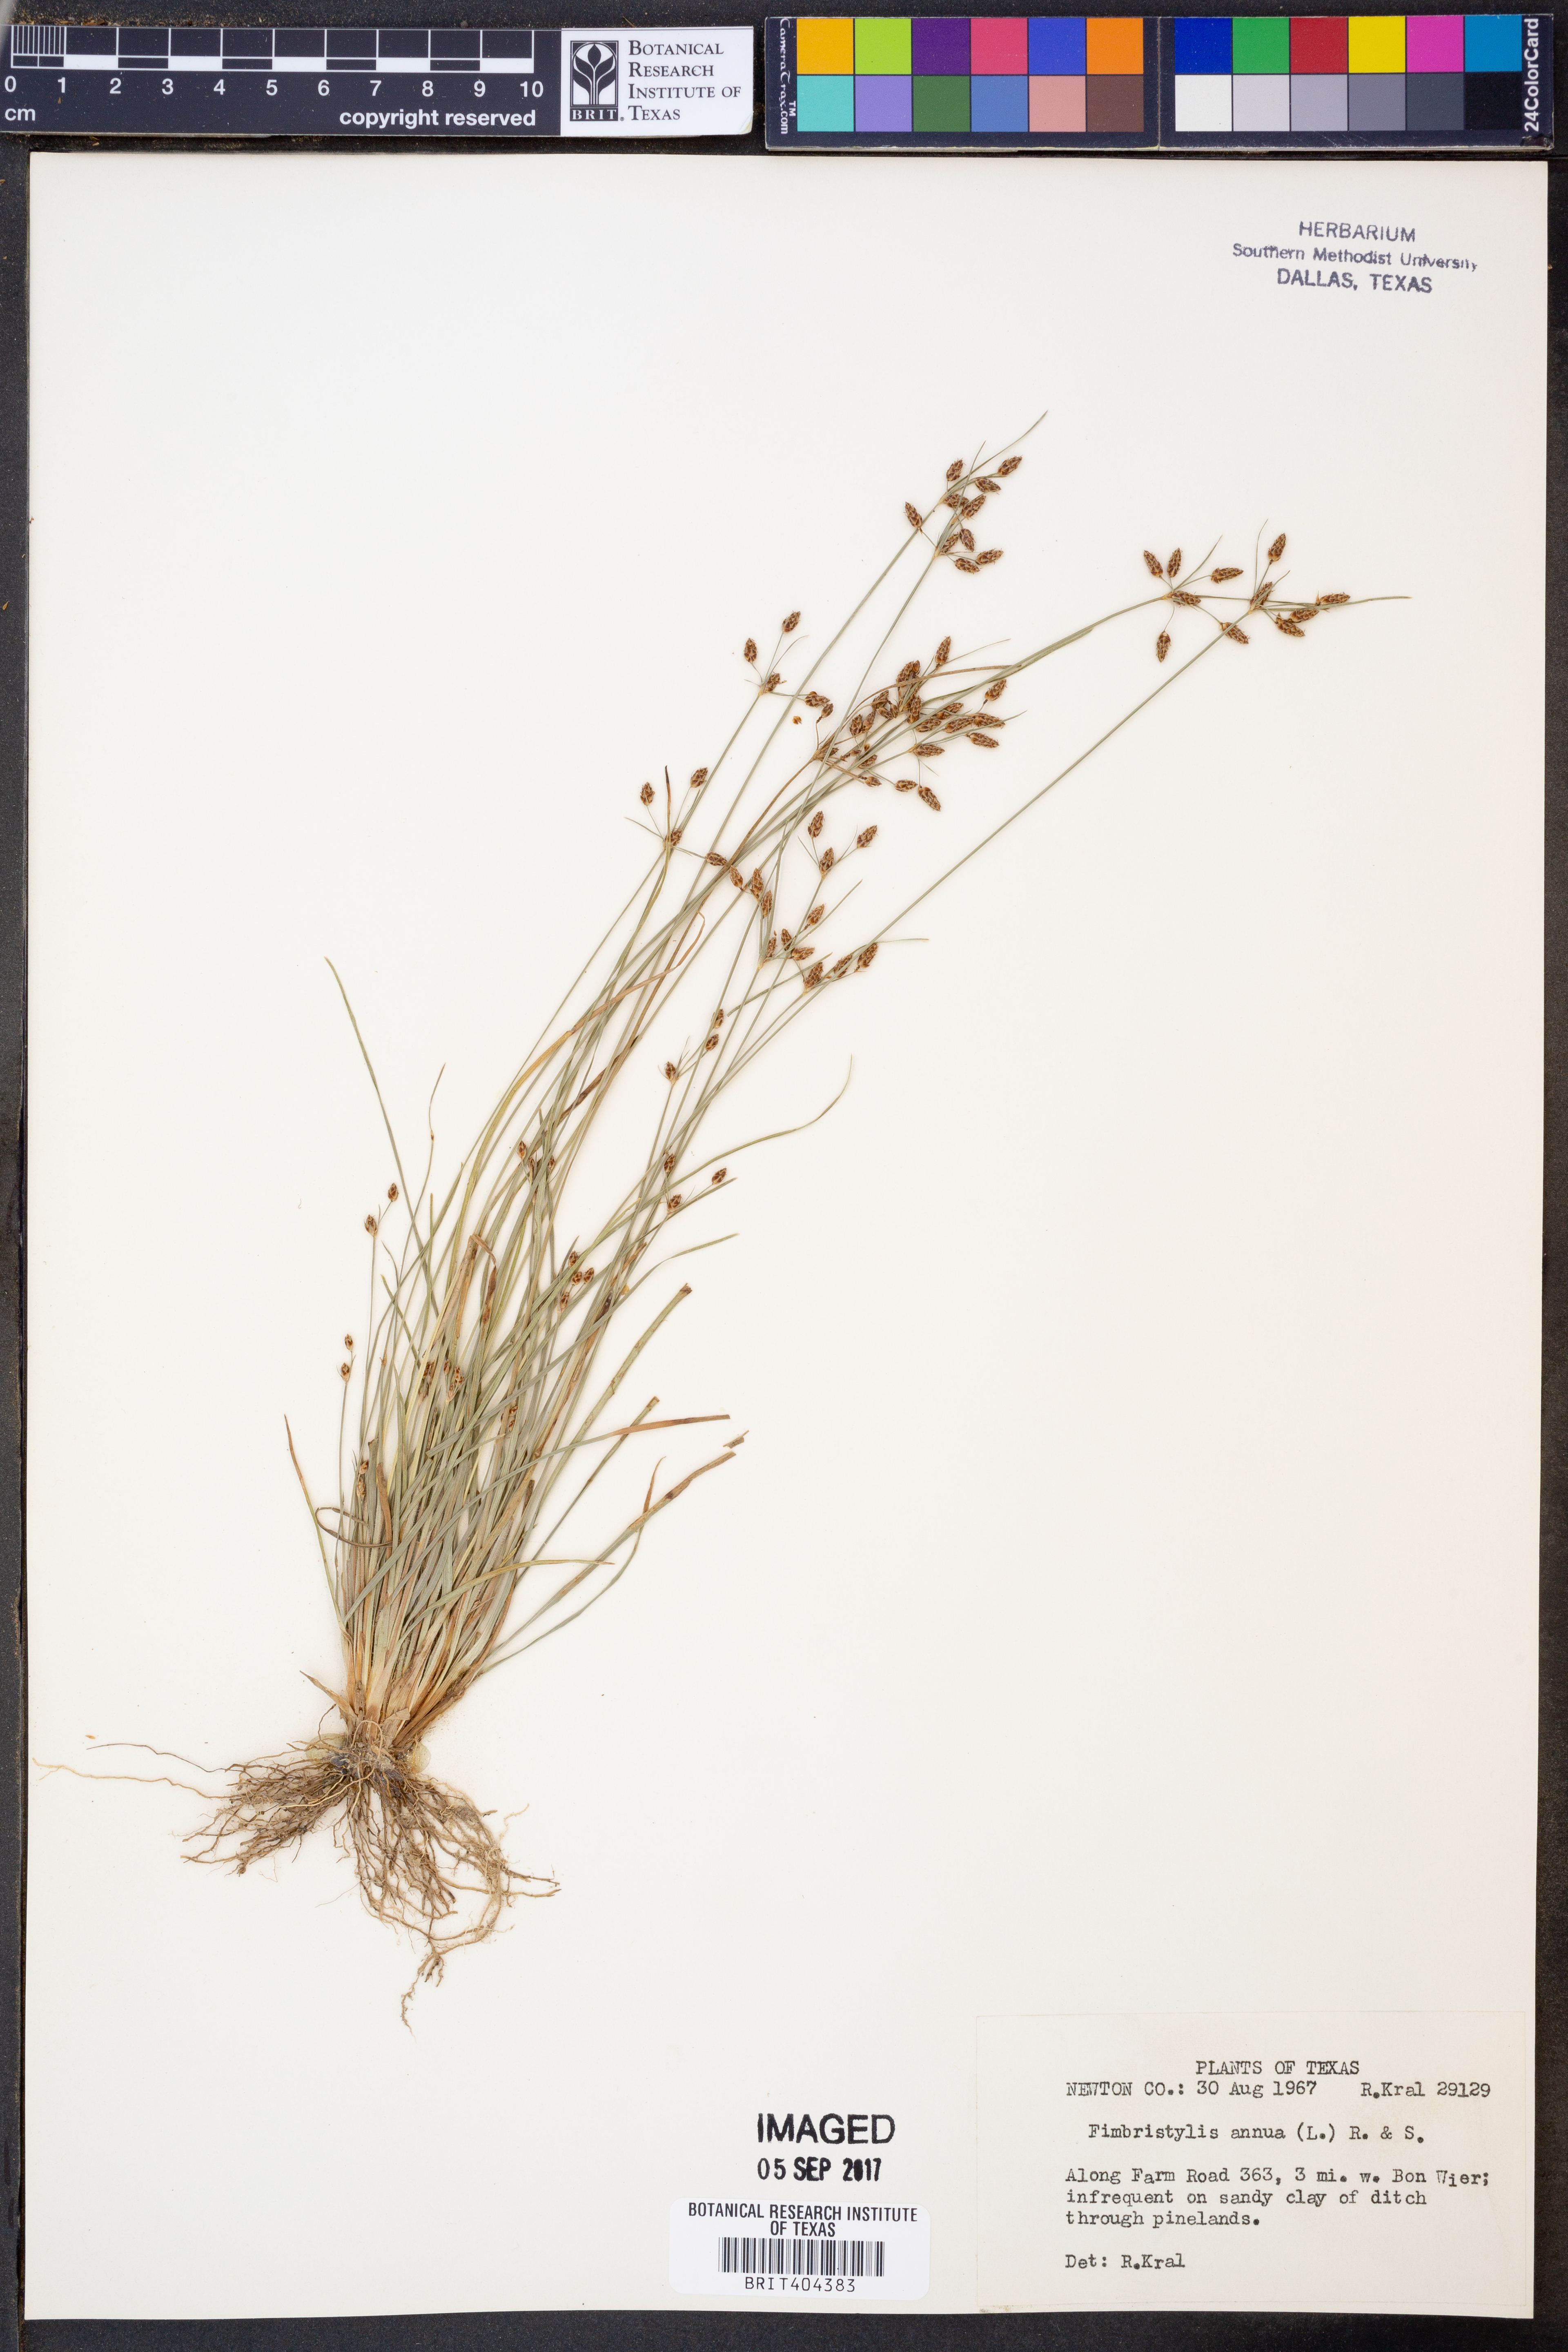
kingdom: Plantae
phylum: Tracheophyta
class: Liliopsida
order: Poales
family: Cyperaceae
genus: Fimbristylis
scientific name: Fimbristylis dichotoma
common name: Forked fimbry
